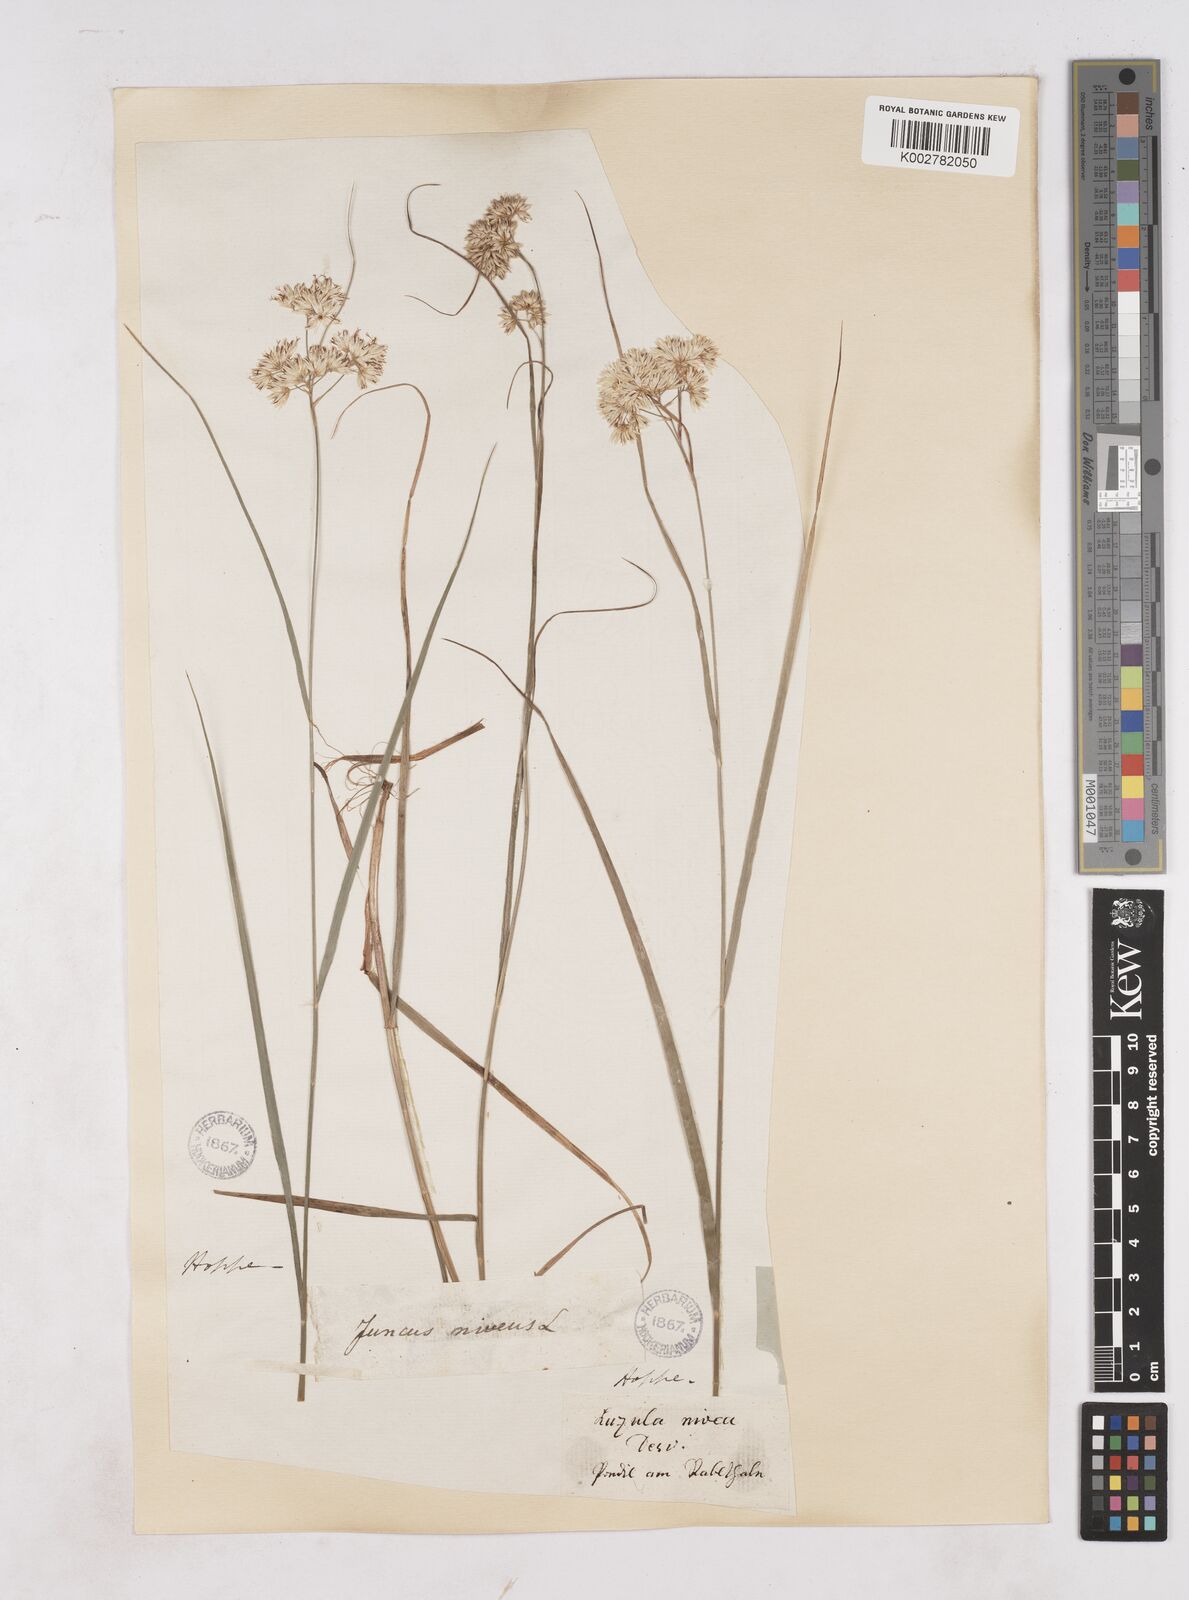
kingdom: Plantae
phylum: Tracheophyta
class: Liliopsida
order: Poales
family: Juncaceae
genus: Luzula
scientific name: Luzula nivea
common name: Snow-white wood-rush
